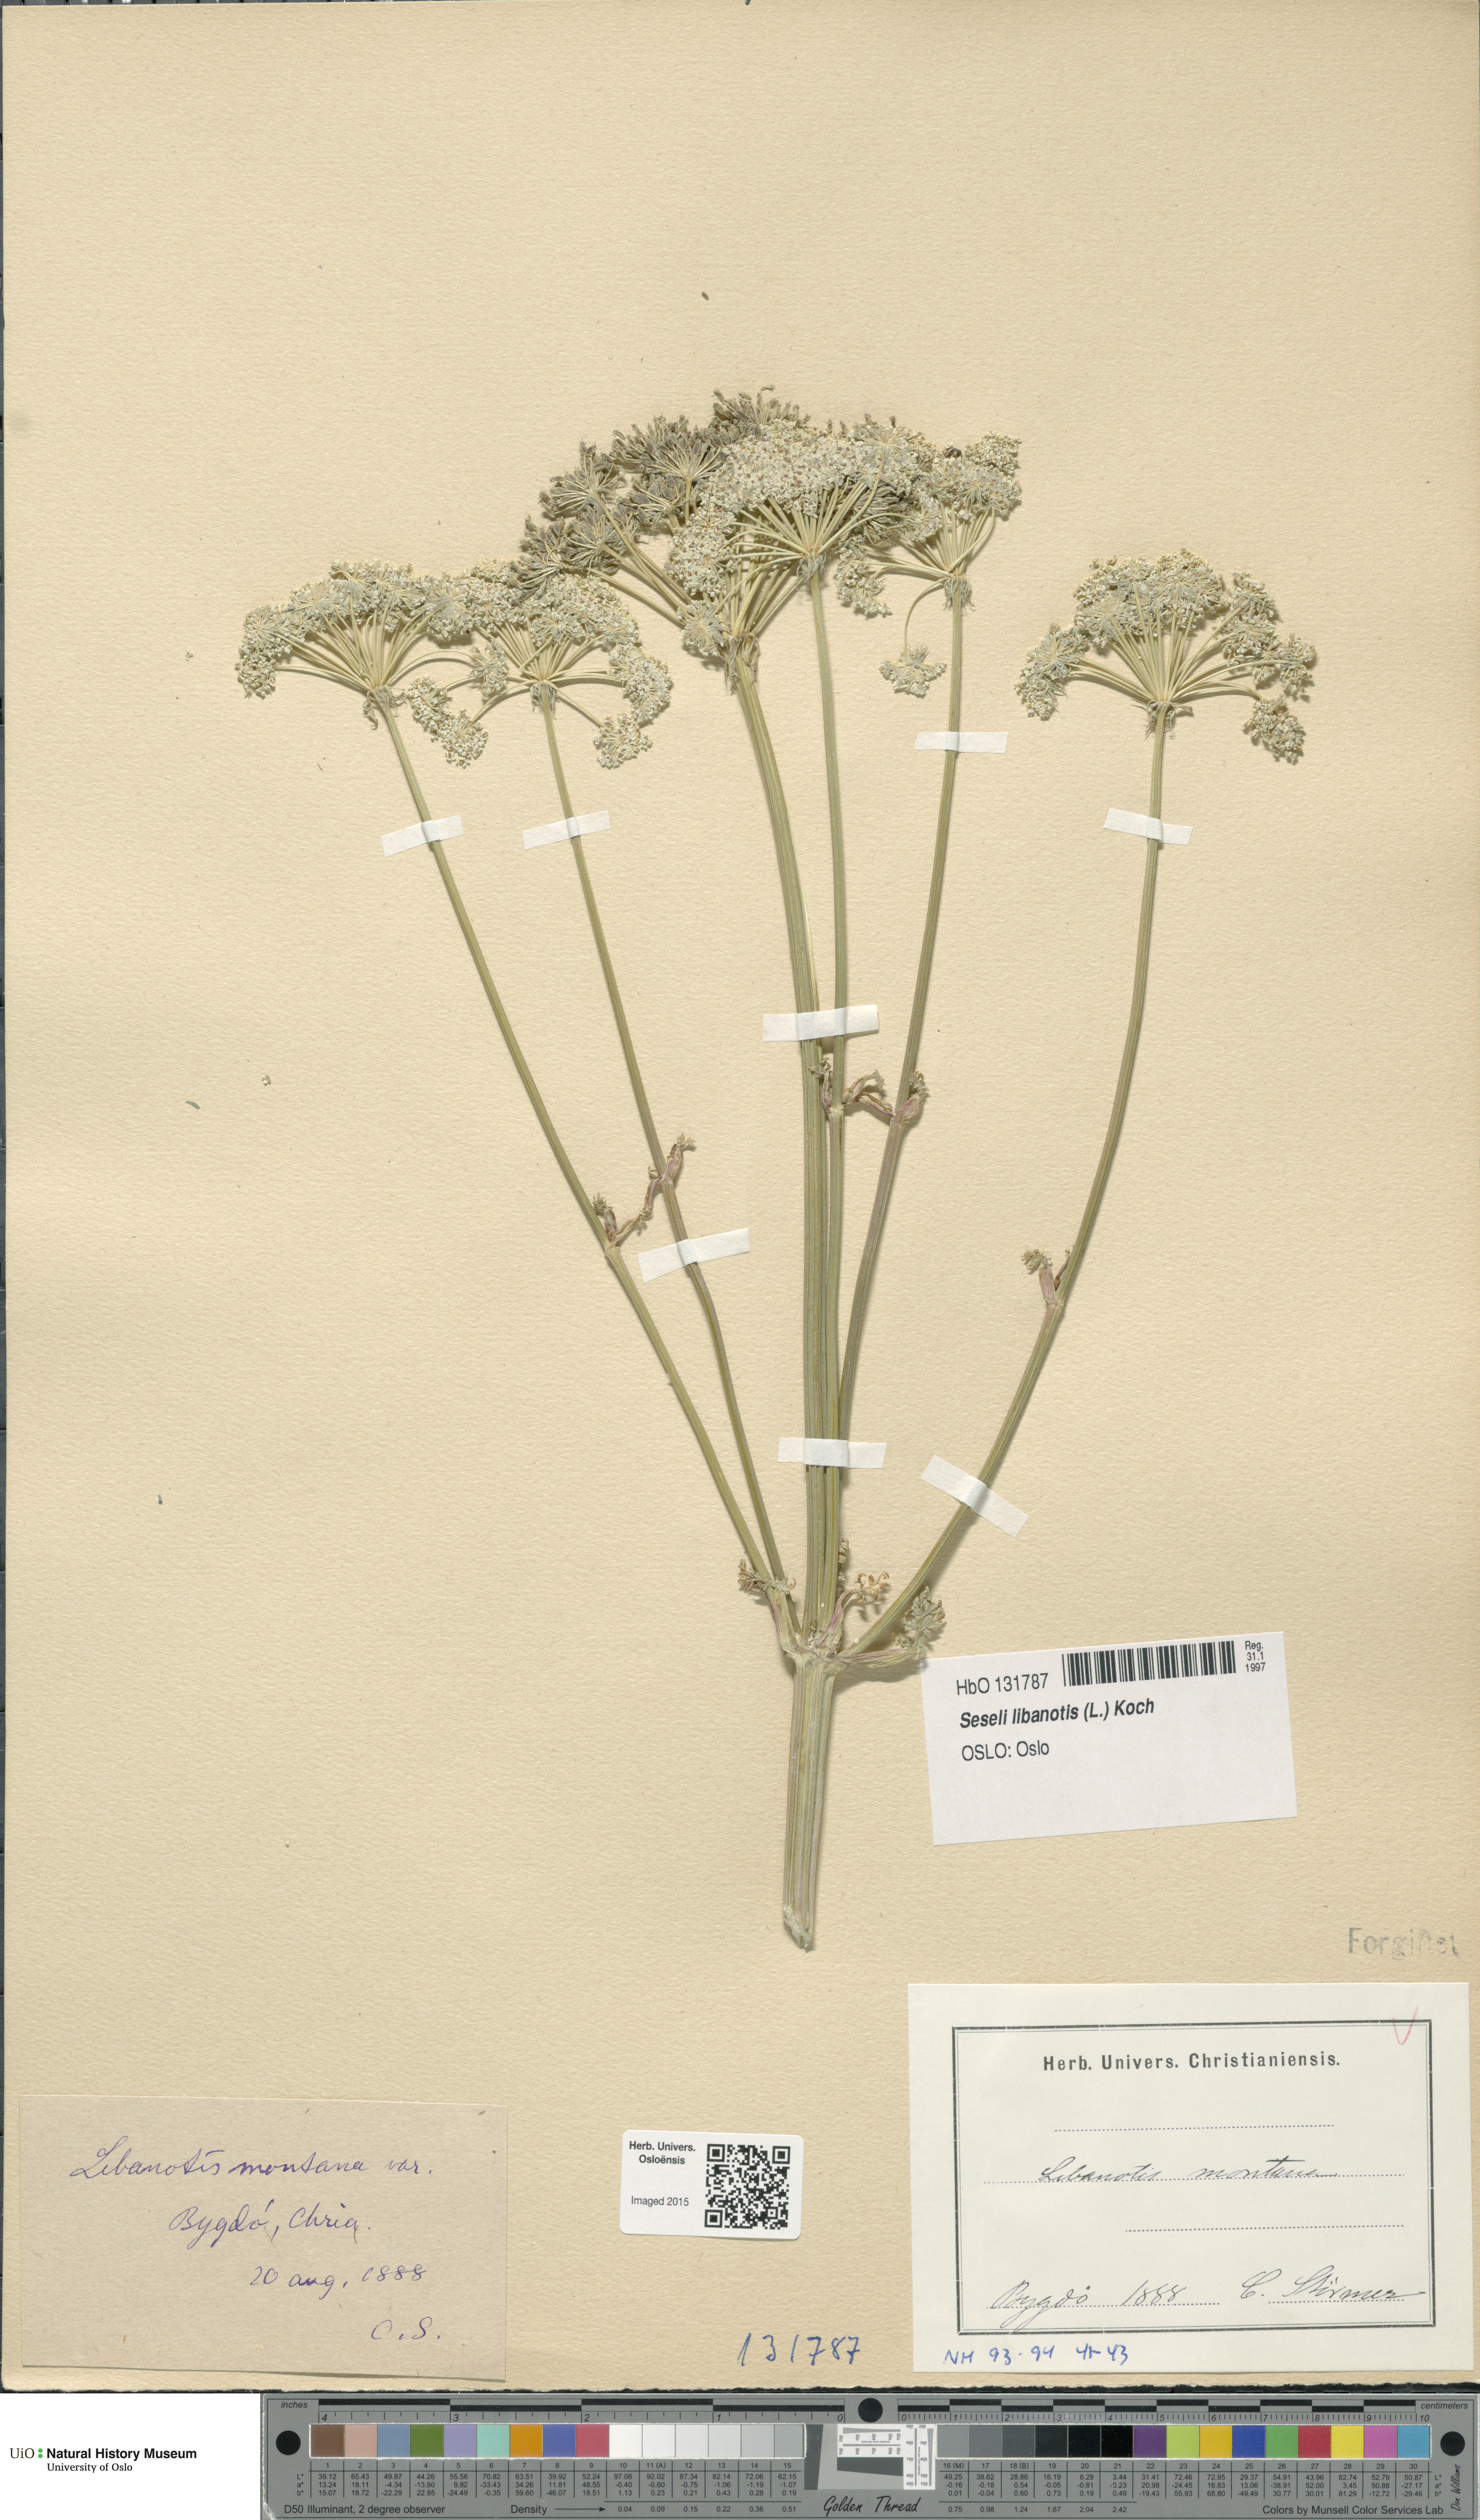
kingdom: Plantae
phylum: Tracheophyta
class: Magnoliopsida
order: Apiales
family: Apiaceae
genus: Seseli
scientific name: Seseli libanotis
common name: Mooncarrot
